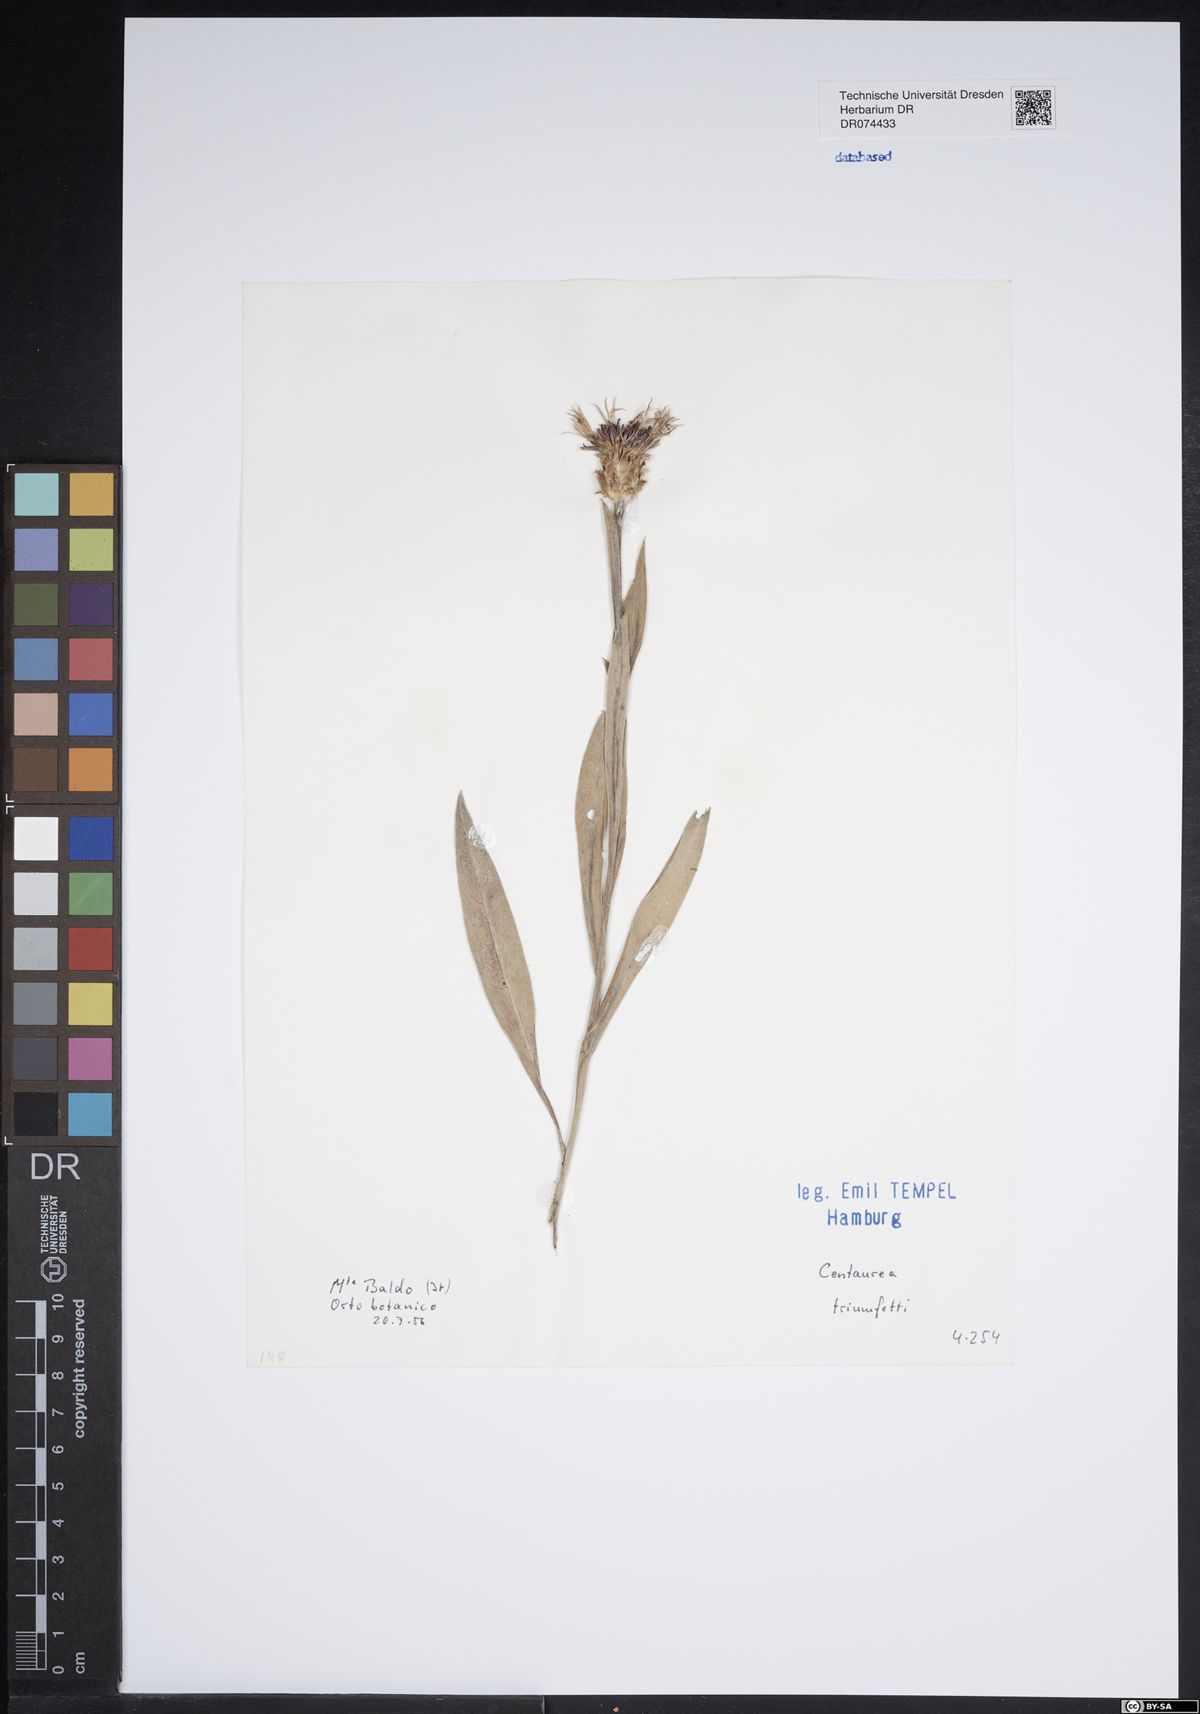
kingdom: Plantae
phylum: Tracheophyta
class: Magnoliopsida
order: Asterales
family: Asteraceae
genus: Centaurea
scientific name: Centaurea triumfettii
